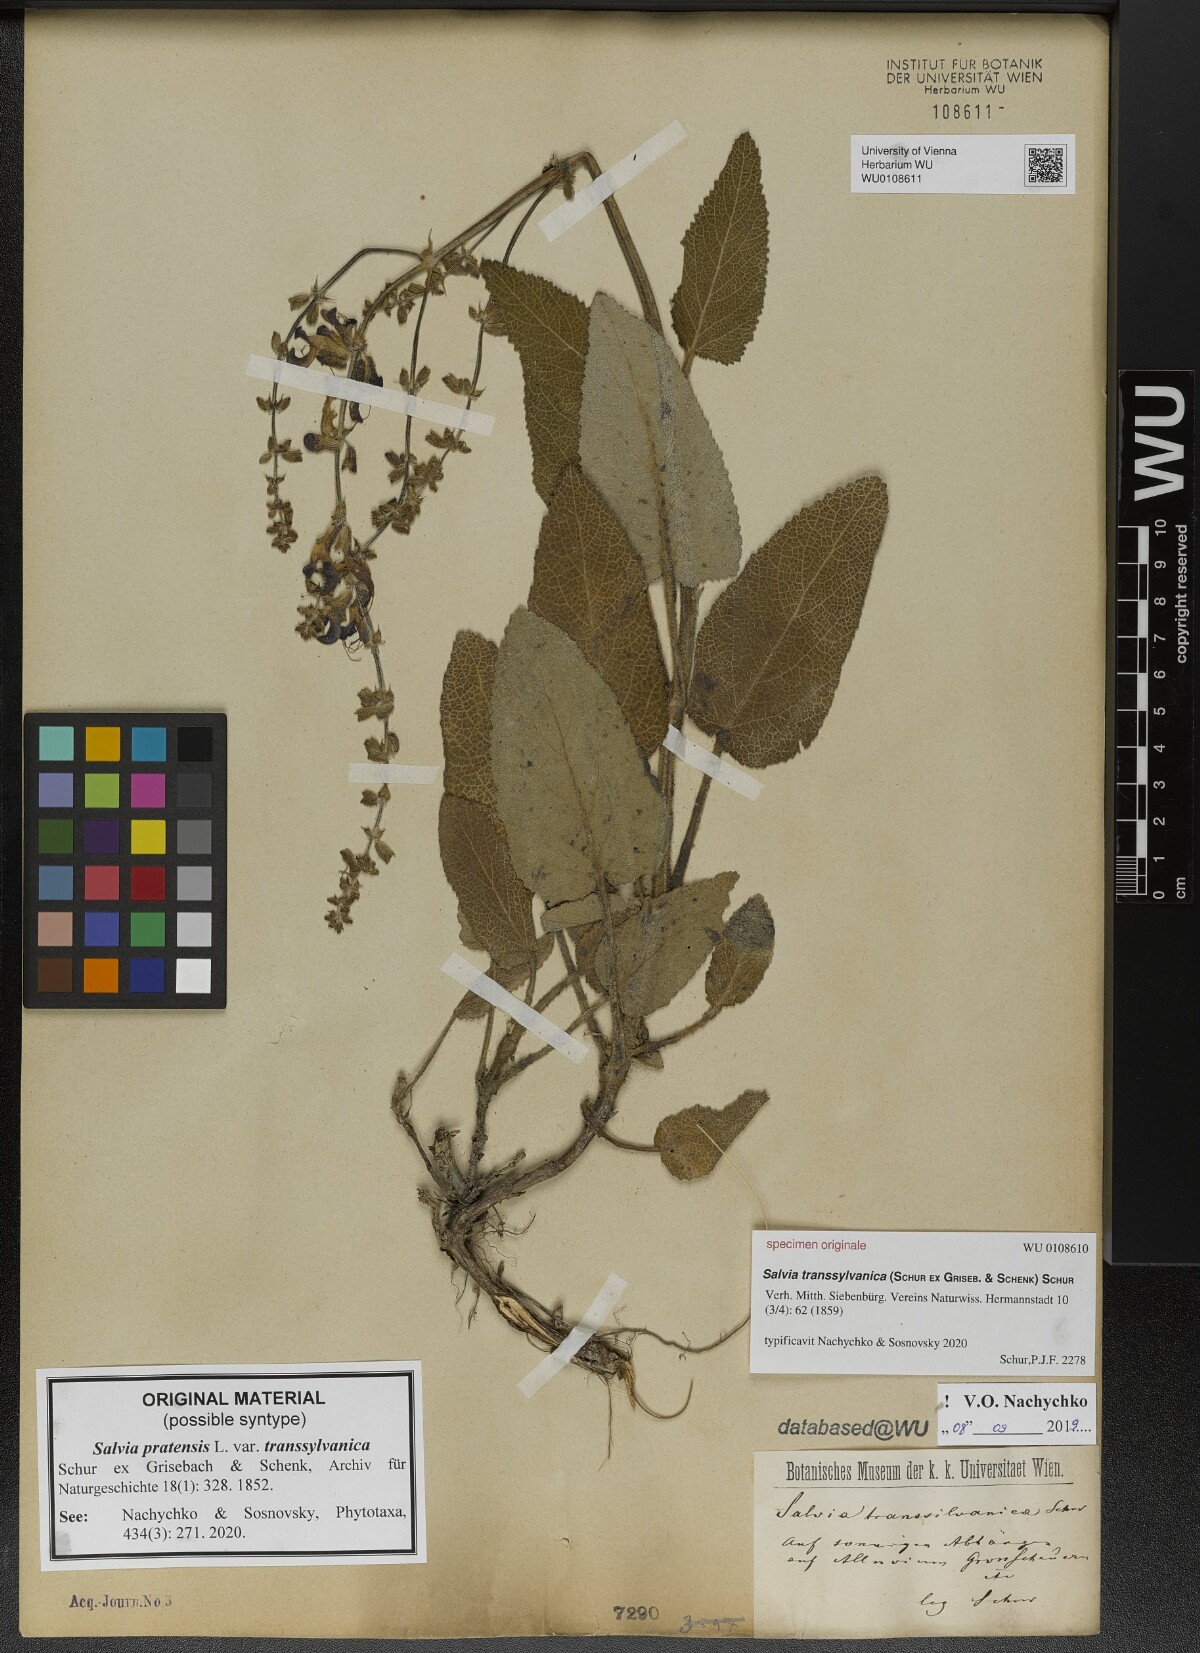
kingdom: Plantae
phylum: Tracheophyta
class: Magnoliopsida
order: Lamiales
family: Lamiaceae
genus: Salvia
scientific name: Salvia transsylvanica
